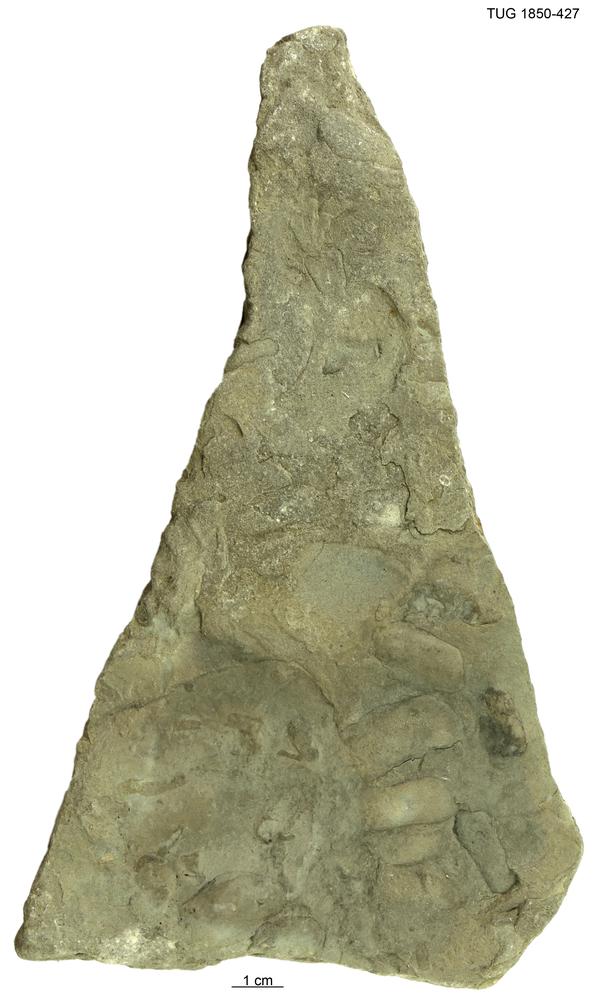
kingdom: Animalia
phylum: Mollusca
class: Bivalvia
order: Modiomorphida
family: Modiomorphidae
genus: Modiolopsis
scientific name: Modiolopsis
